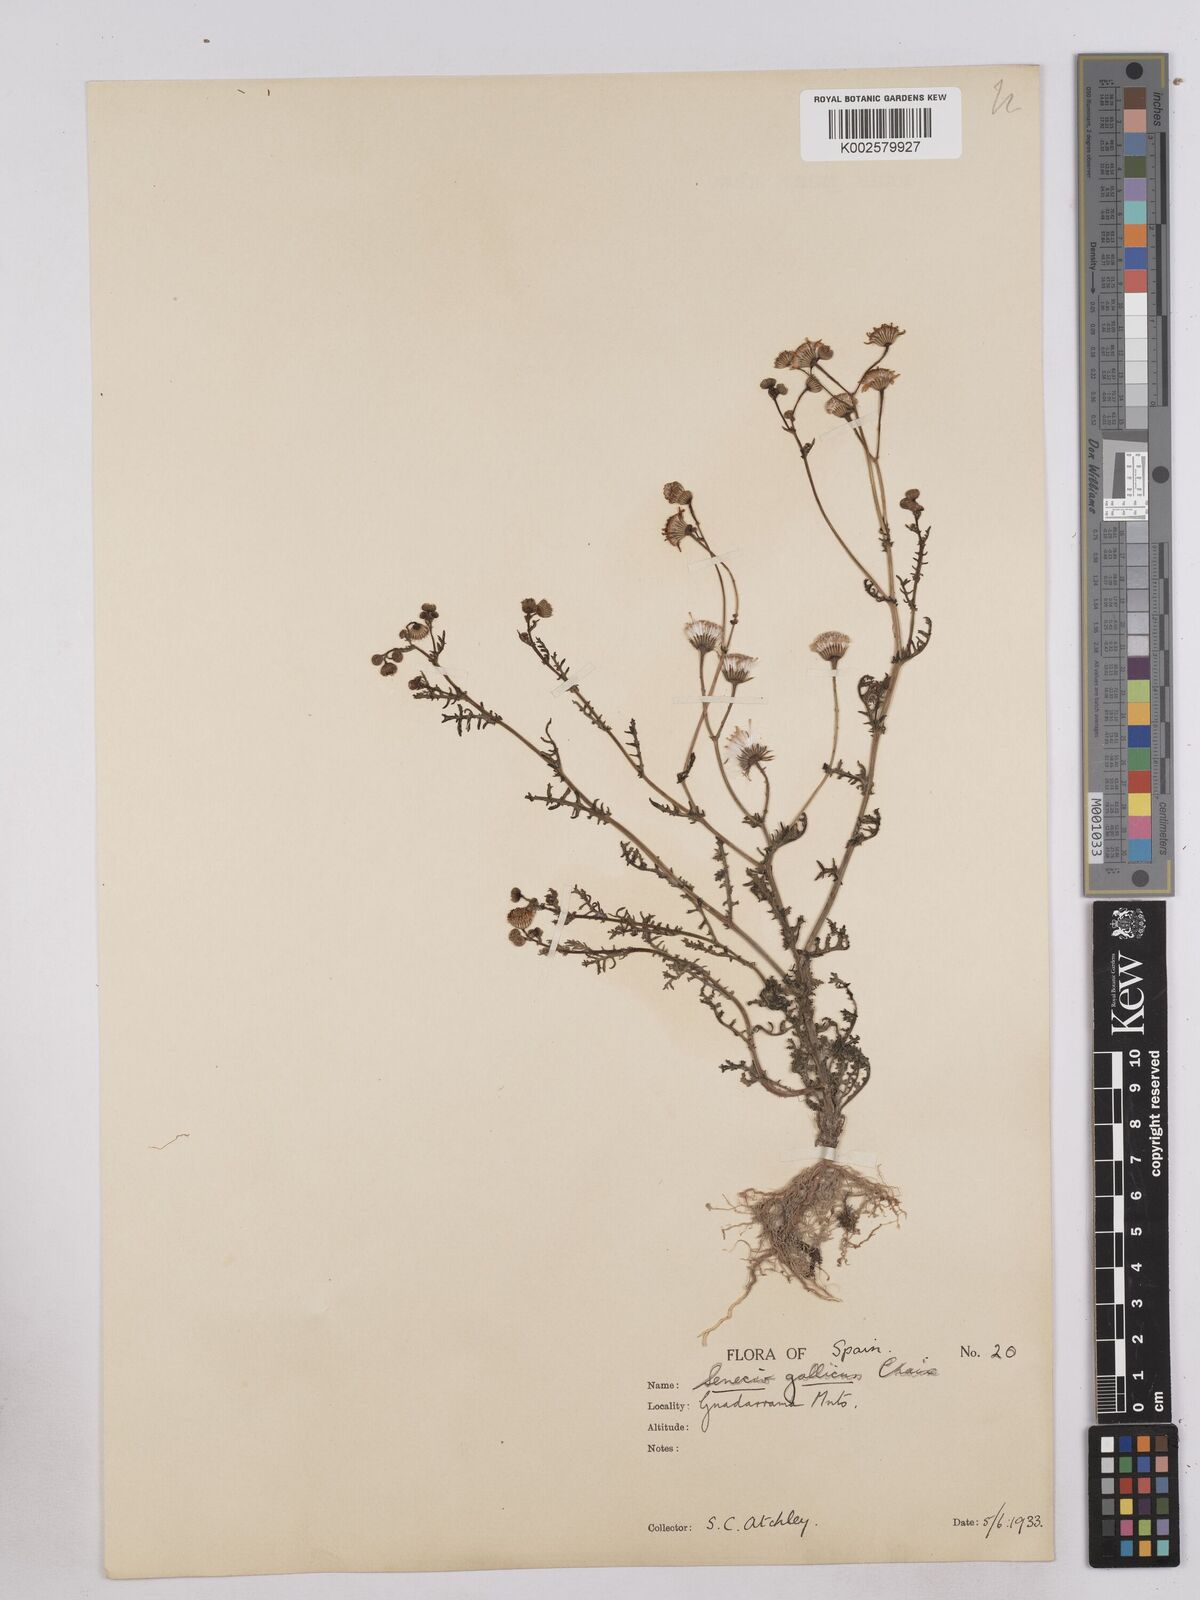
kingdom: Plantae
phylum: Tracheophyta
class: Magnoliopsida
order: Asterales
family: Asteraceae
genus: Senecio
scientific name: Senecio gallicus
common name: French groundsel
